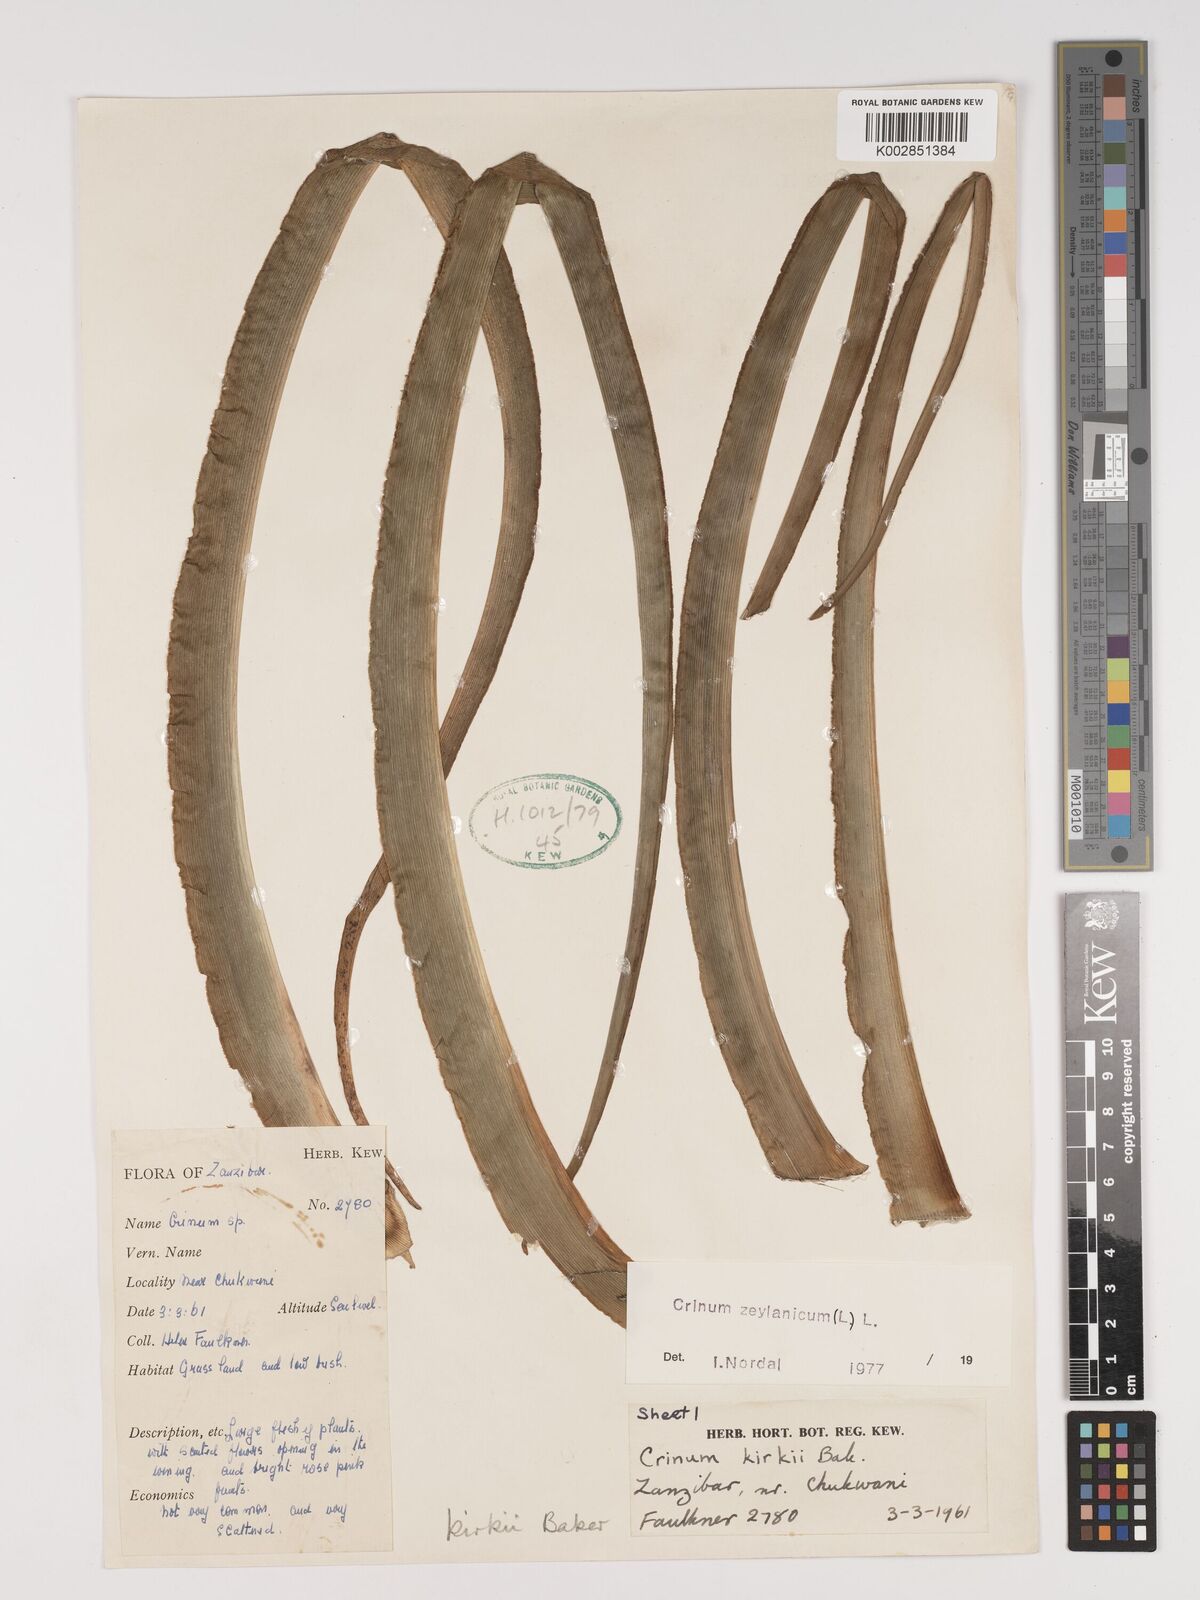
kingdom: Plantae
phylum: Tracheophyta
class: Liliopsida
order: Asparagales
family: Amaryllidaceae
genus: Crinum
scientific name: Crinum kirkii
